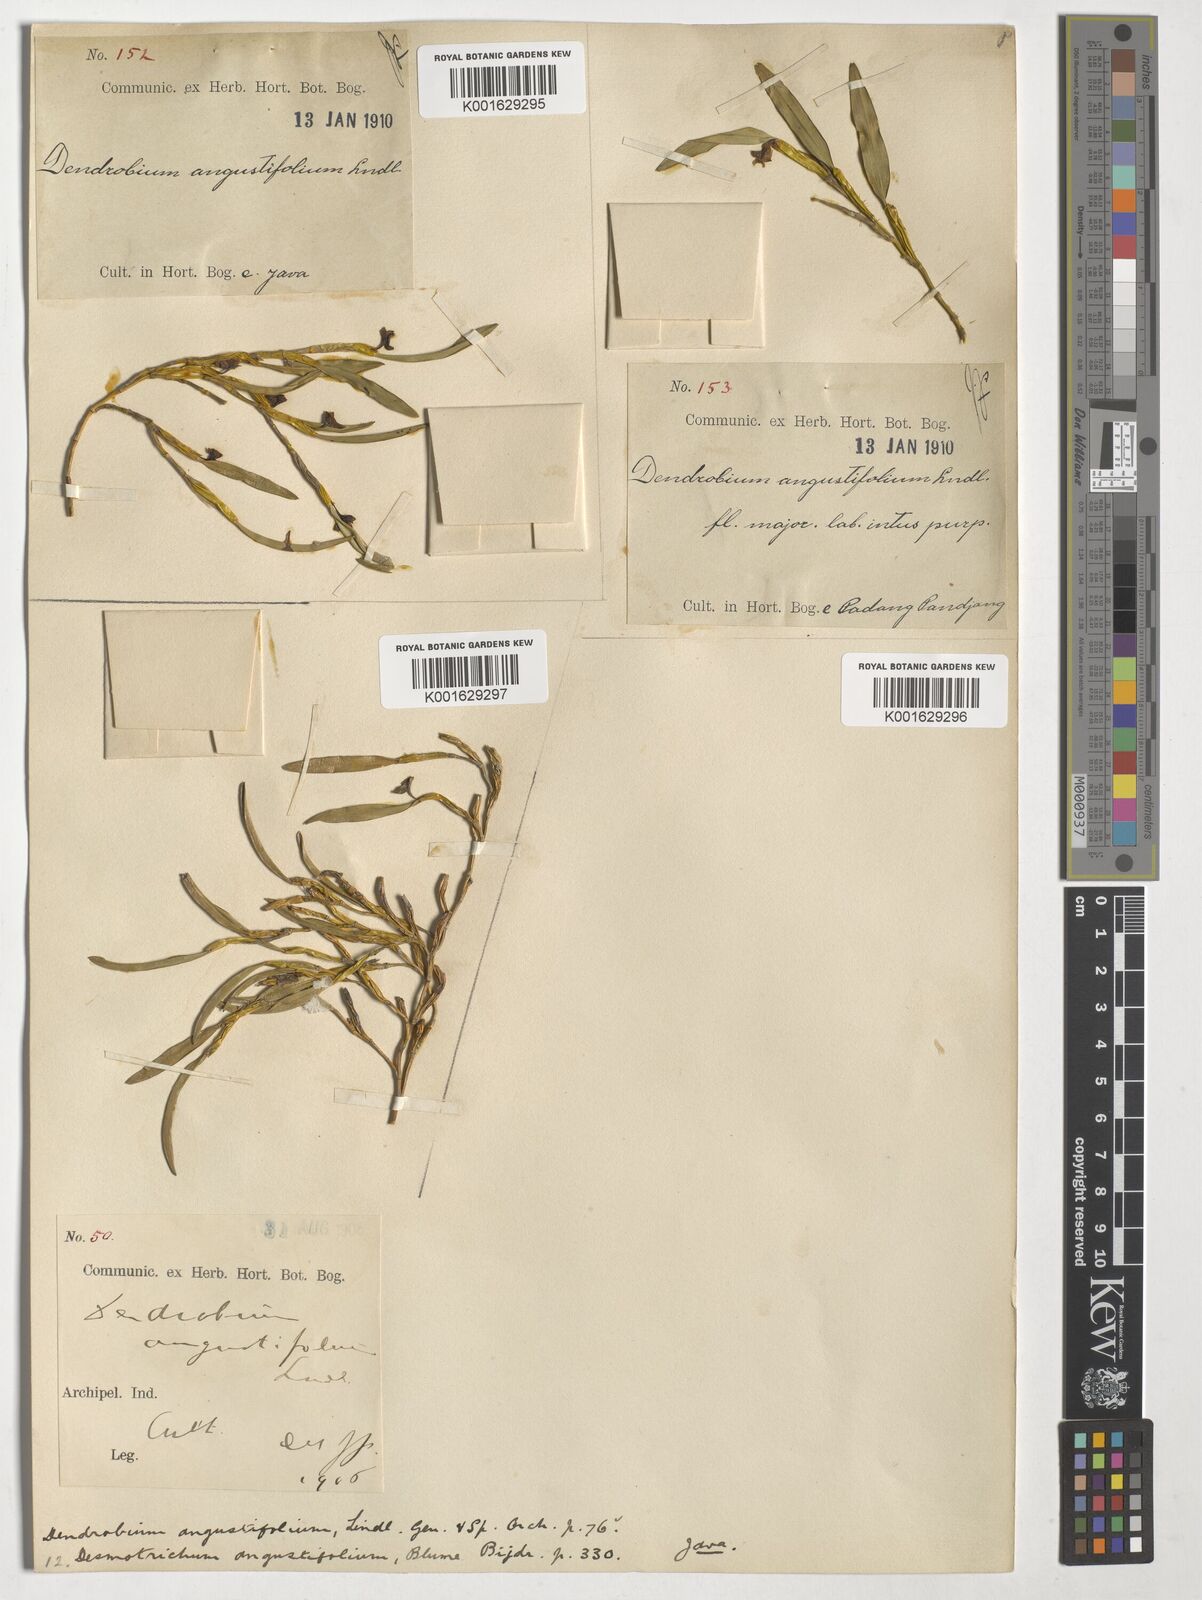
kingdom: Plantae
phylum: Tracheophyta
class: Liliopsida
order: Asparagales
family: Orchidaceae
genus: Bryobium
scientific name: Bryobium
